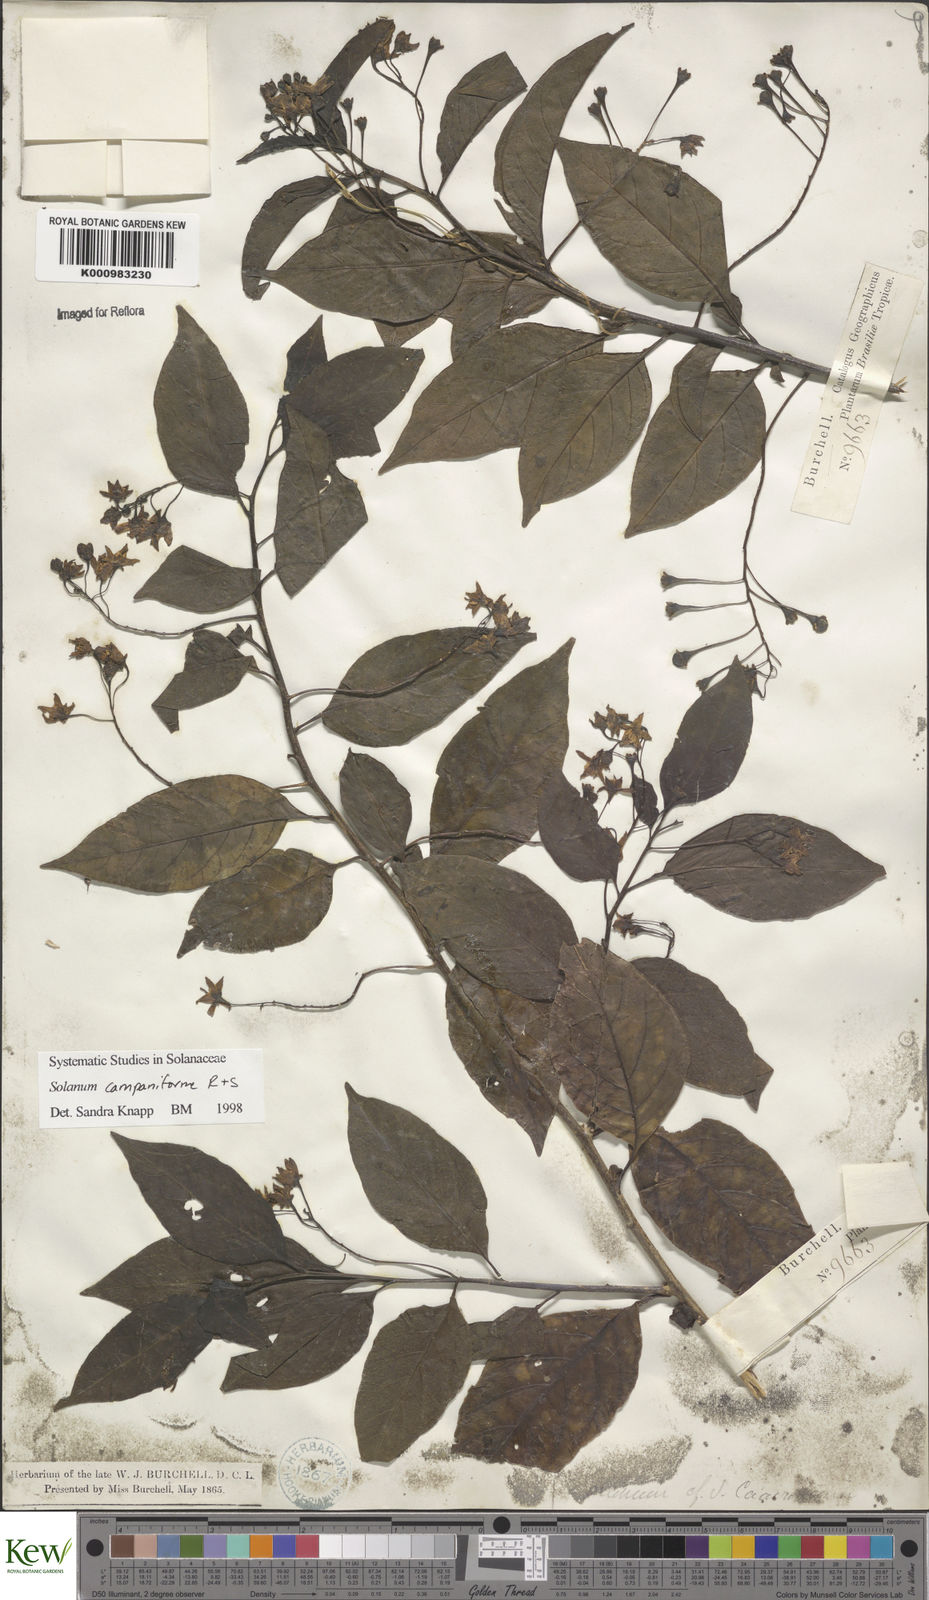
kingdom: Plantae
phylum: Tracheophyta
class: Magnoliopsida
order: Solanales
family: Solanaceae
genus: Solanum
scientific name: Solanum campaniforme
